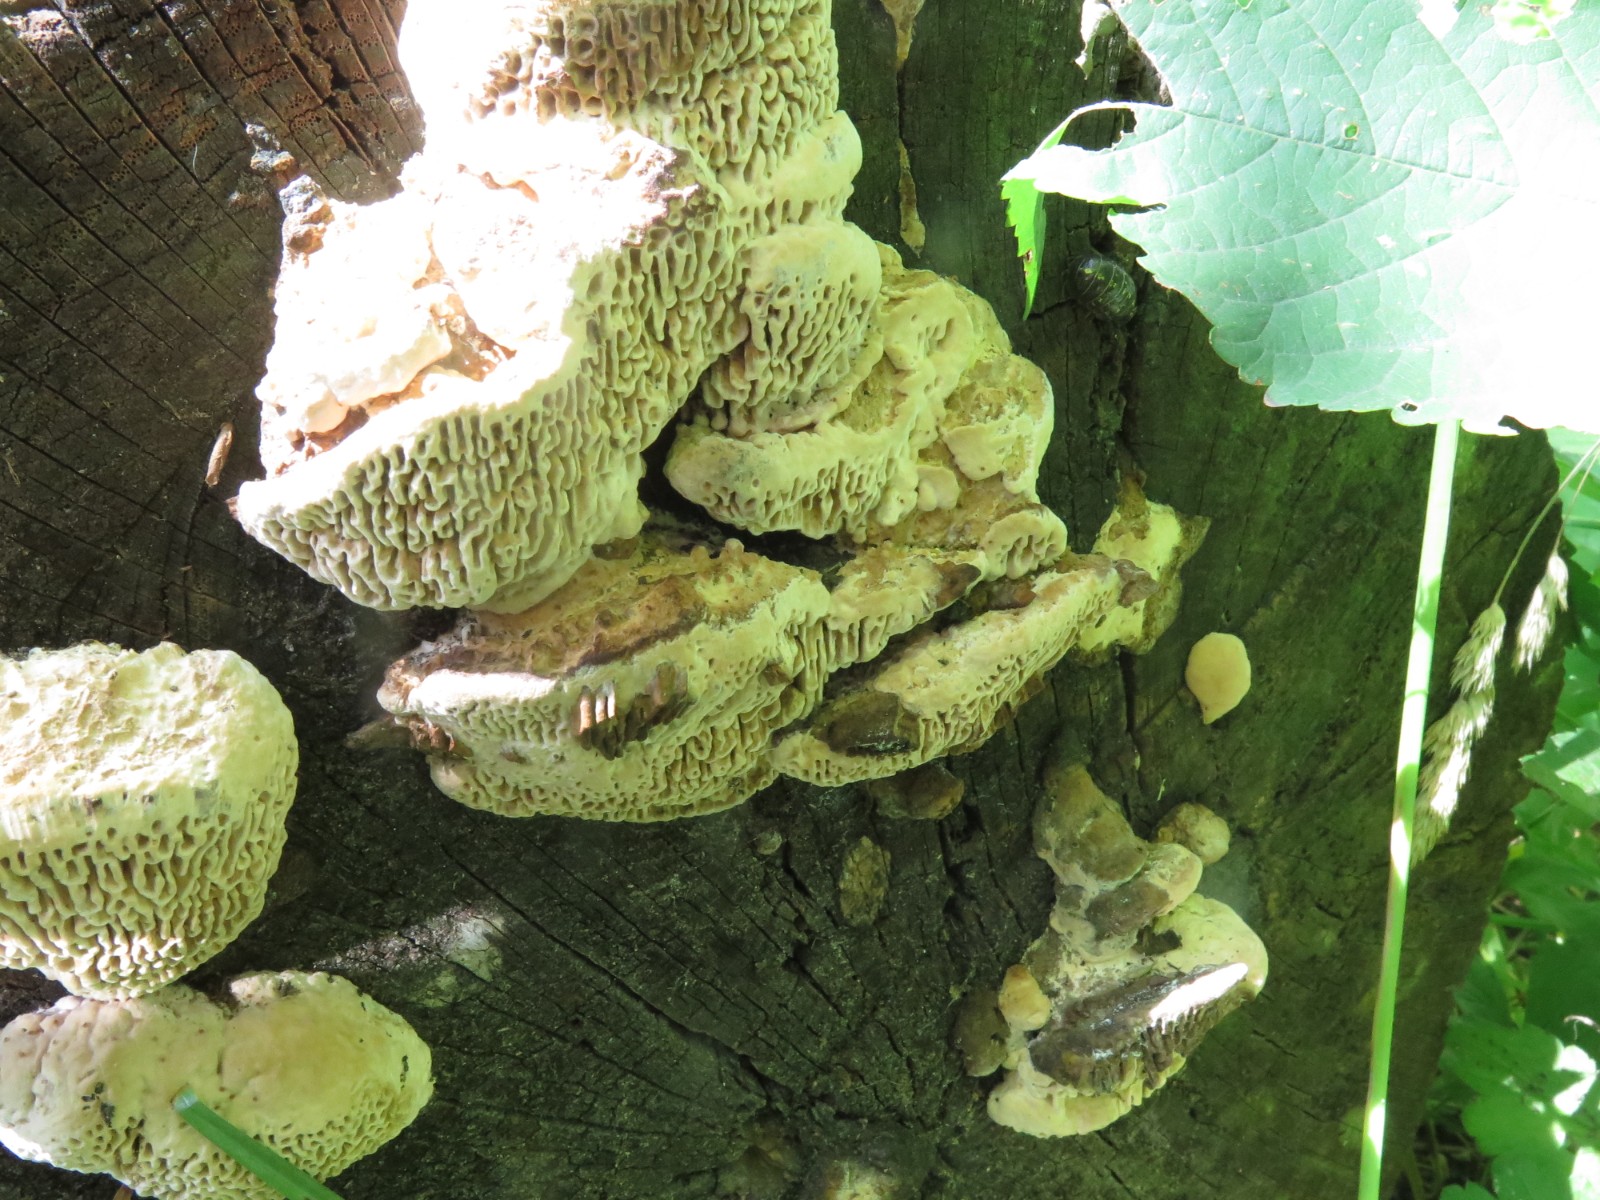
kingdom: Fungi
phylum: Basidiomycota
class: Agaricomycetes
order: Polyporales
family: Fomitopsidaceae
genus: Daedalea
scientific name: Daedalea quercina
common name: ege-labyrintsvamp
